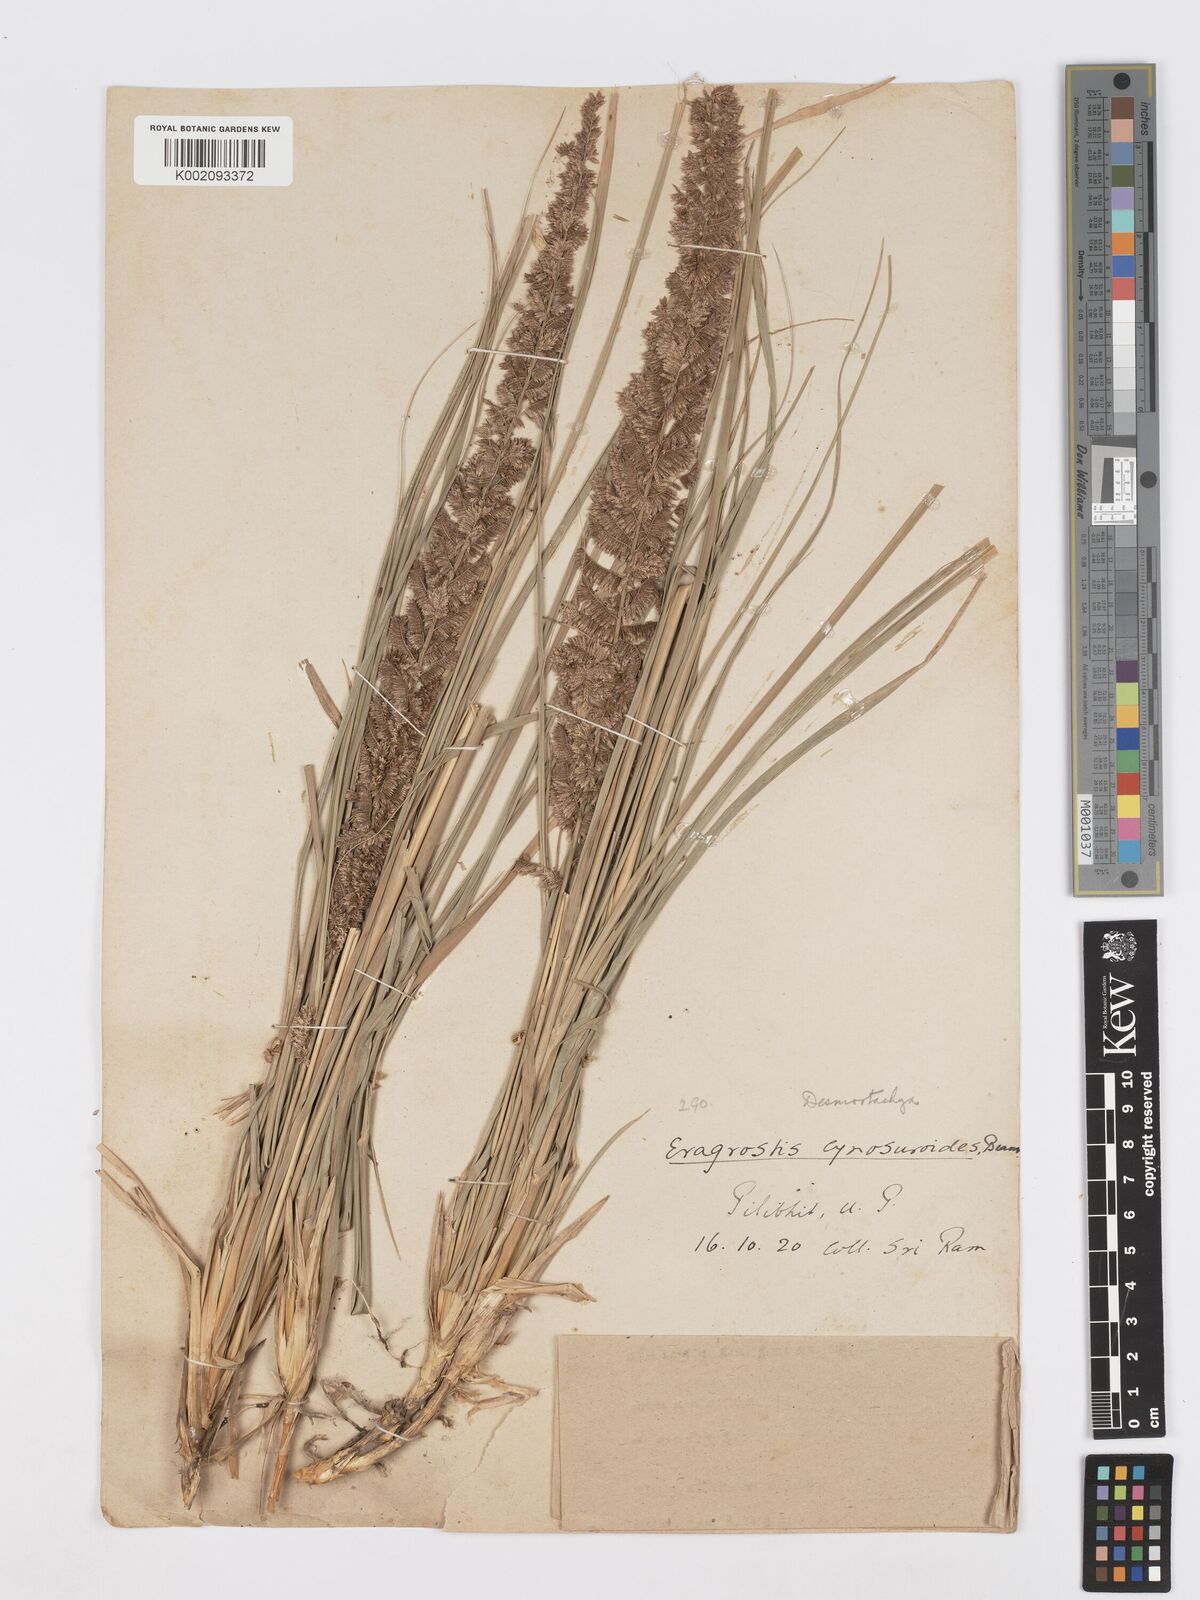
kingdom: Plantae
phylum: Tracheophyta
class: Liliopsida
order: Poales
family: Poaceae
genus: Desmostachya
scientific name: Desmostachya bipinnata
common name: Crowfoot grass
